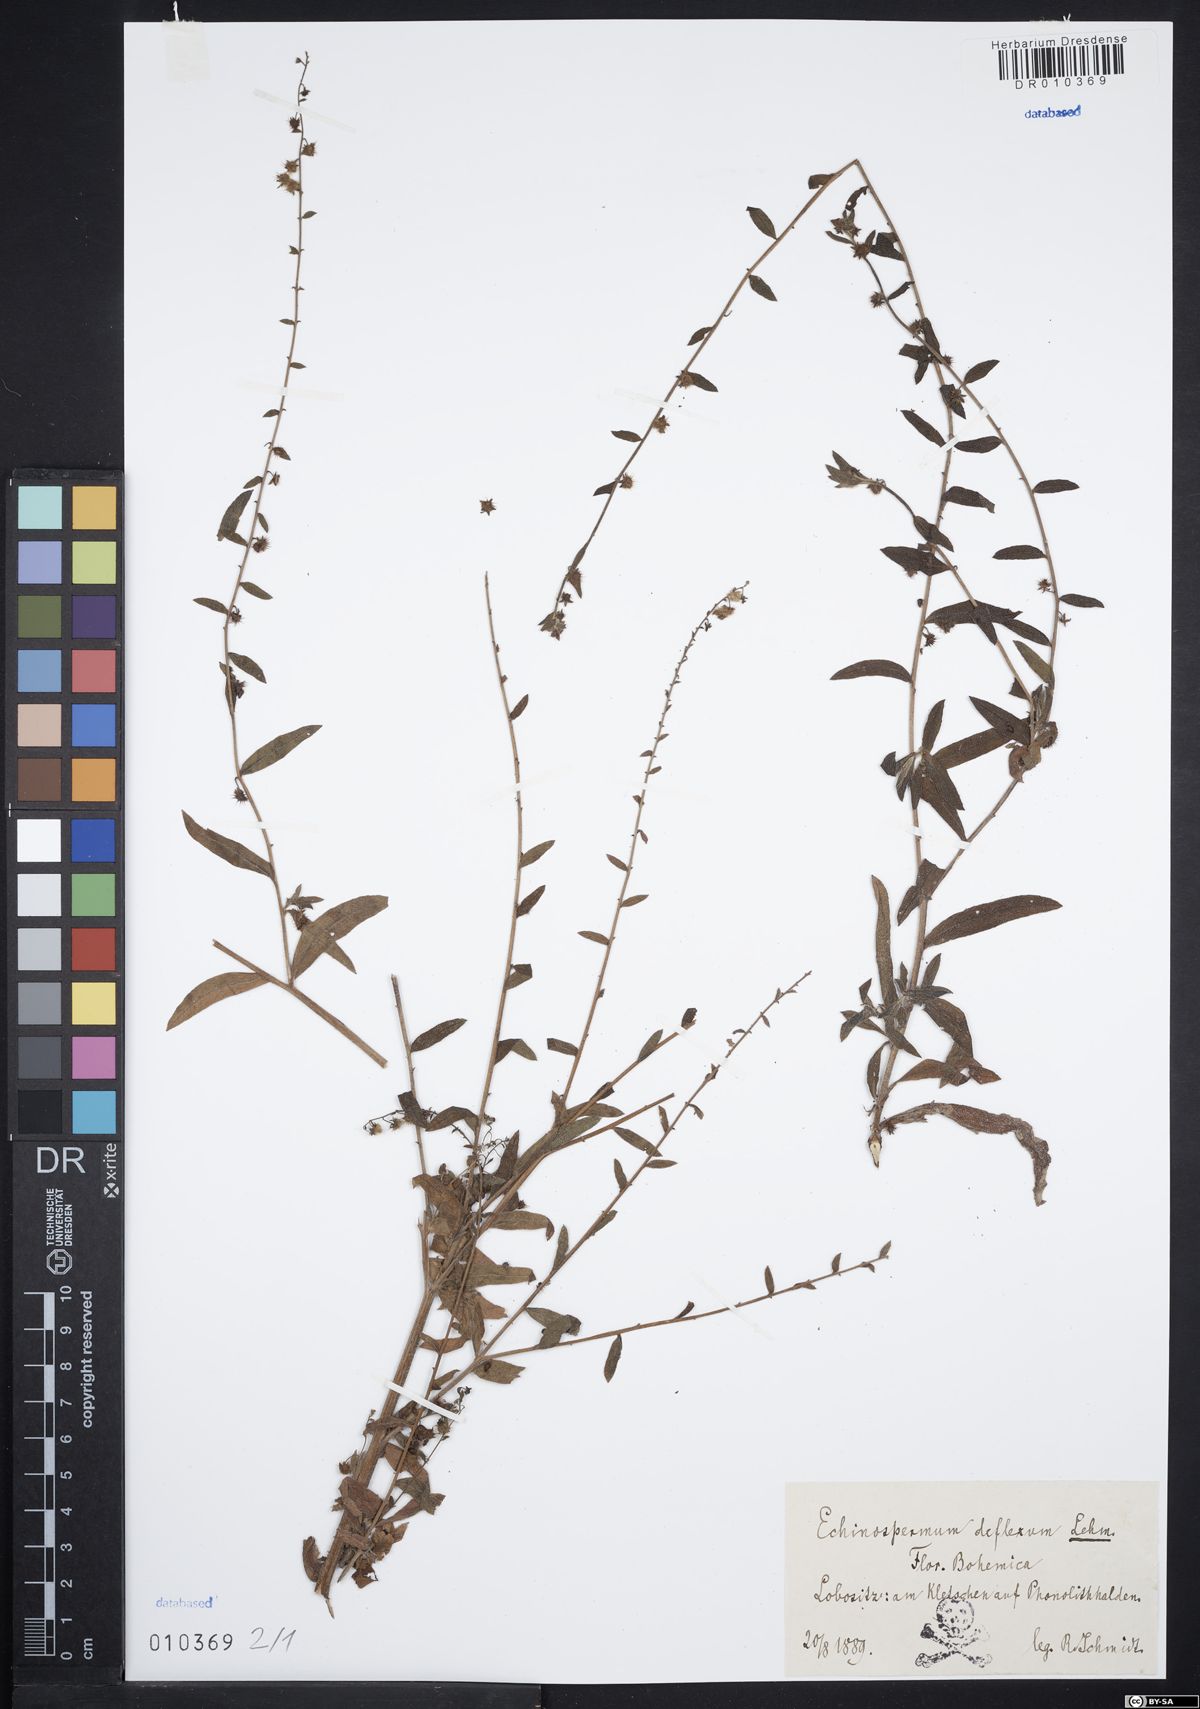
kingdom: Plantae
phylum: Tracheophyta
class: Magnoliopsida
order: Boraginales
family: Boraginaceae
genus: Hackelia
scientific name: Hackelia deflexa
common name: Nodding stickseed
